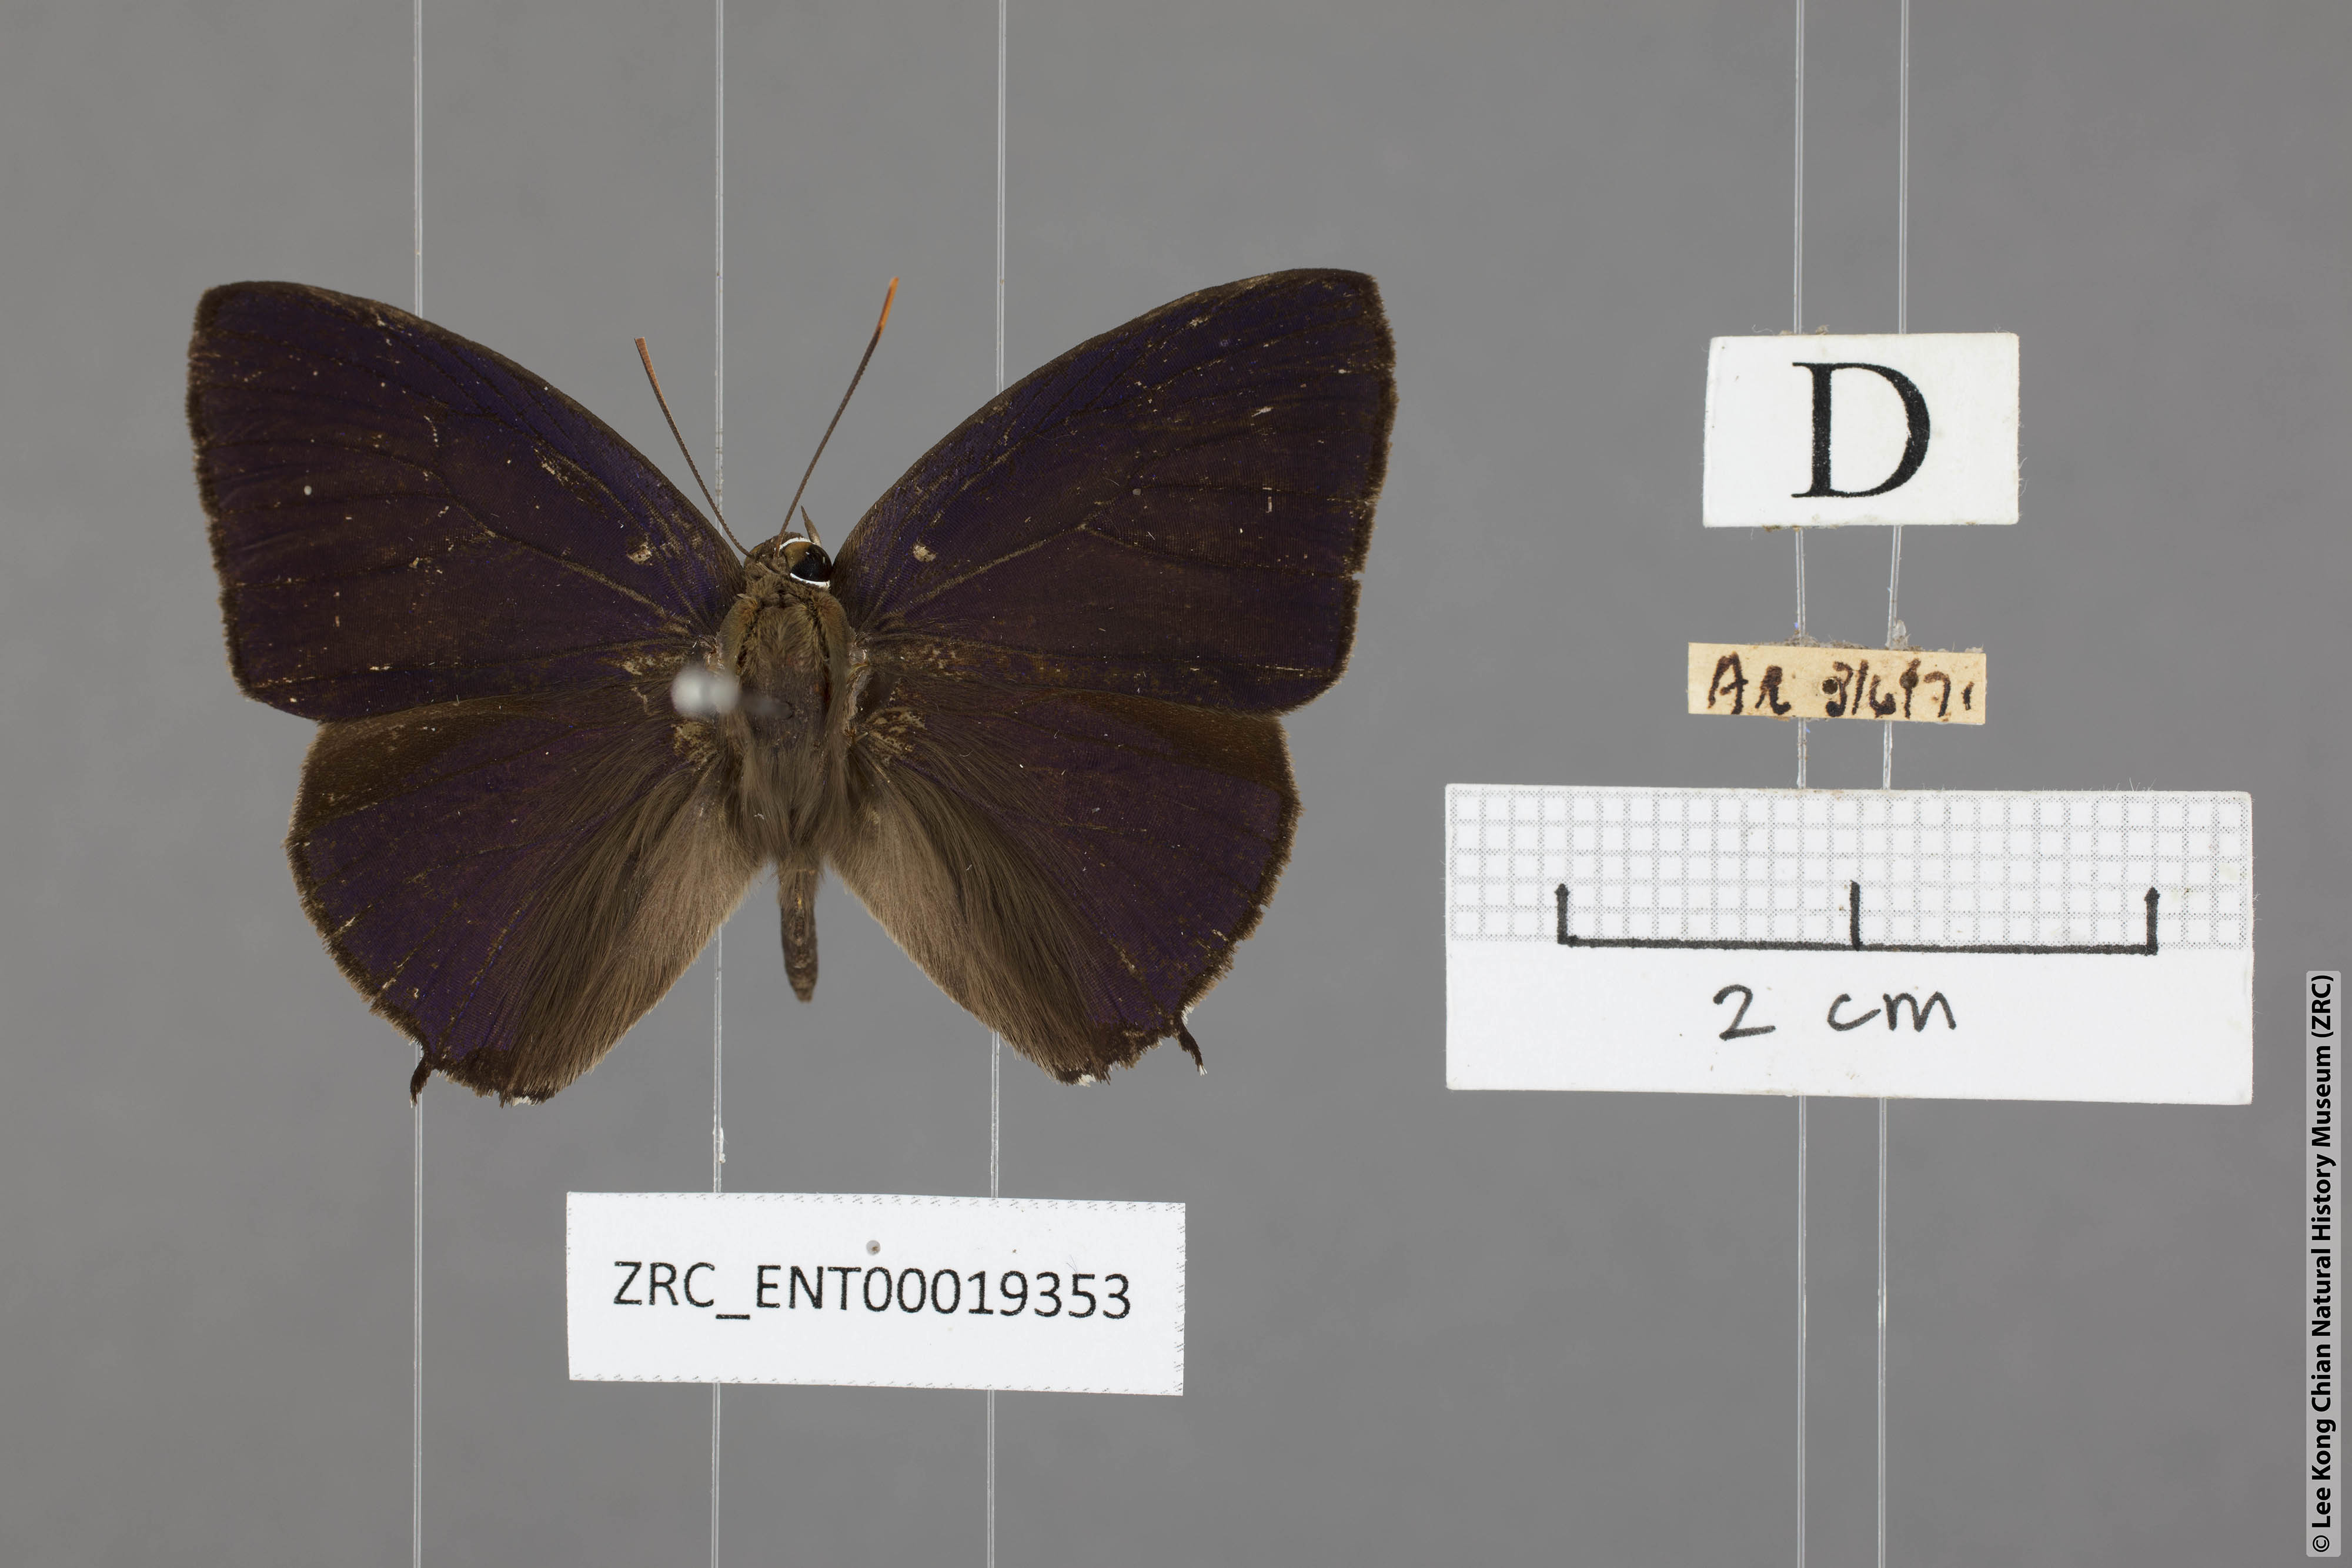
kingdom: Animalia
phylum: Arthropoda
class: Insecta
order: Lepidoptera
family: Lycaenidae
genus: Arhopala
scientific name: Arhopala corinda
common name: Ultramarine oakblue
